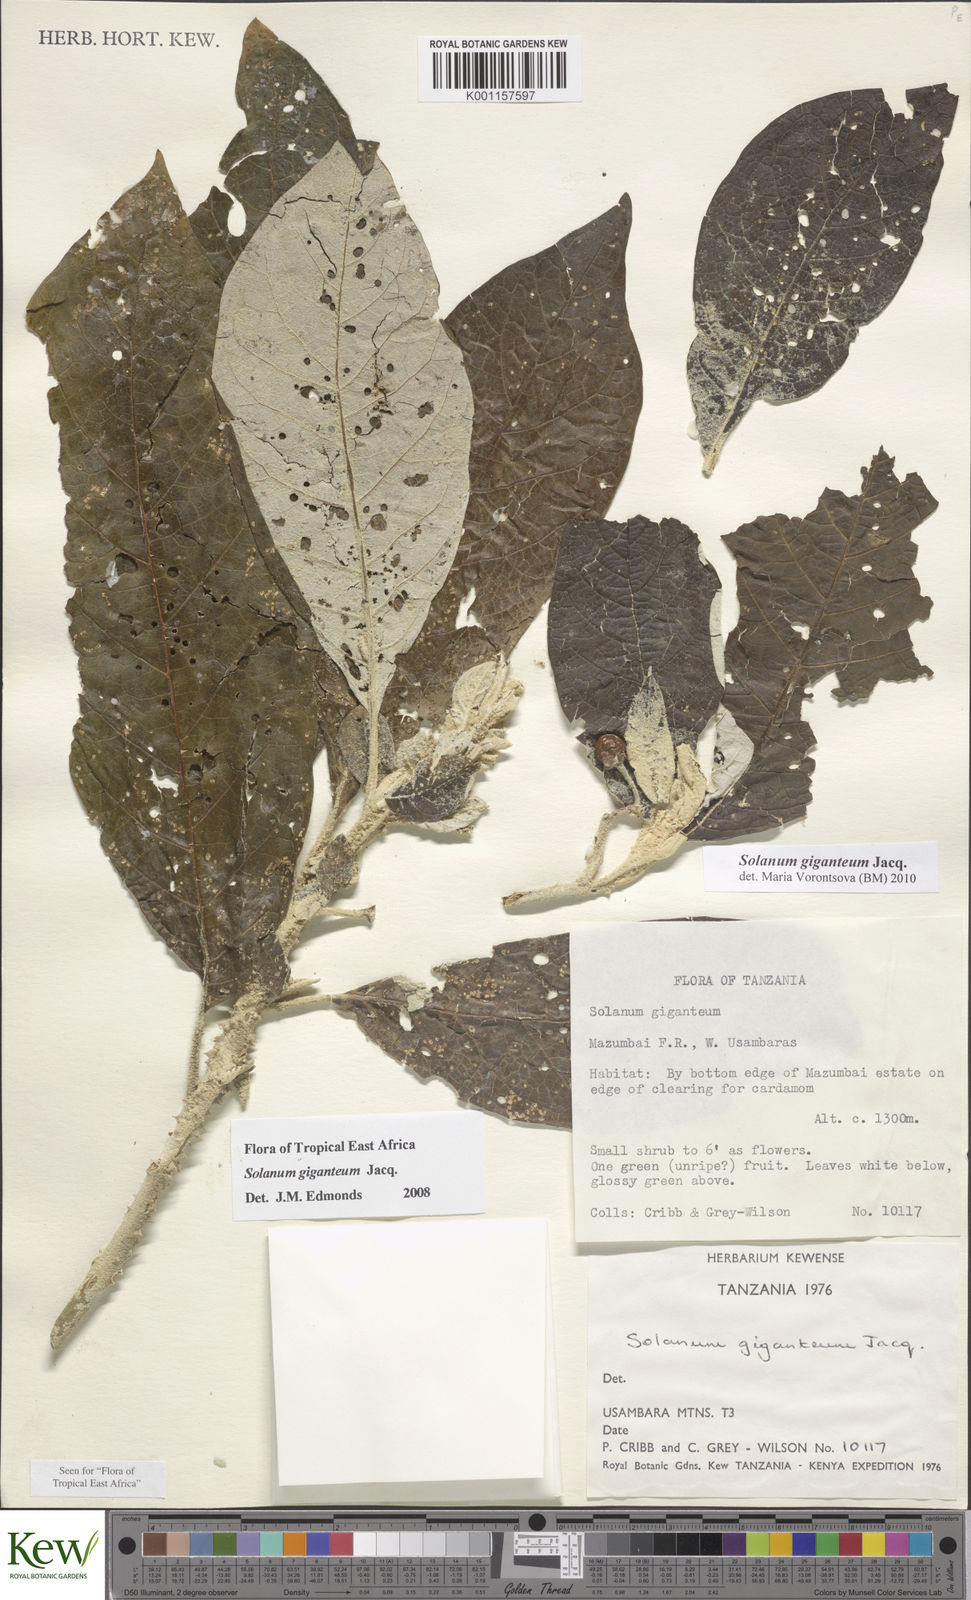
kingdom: Plantae
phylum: Tracheophyta
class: Magnoliopsida
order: Solanales
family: Solanaceae
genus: Solanum
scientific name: Solanum giganteum
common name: Healing-leaf-tree
